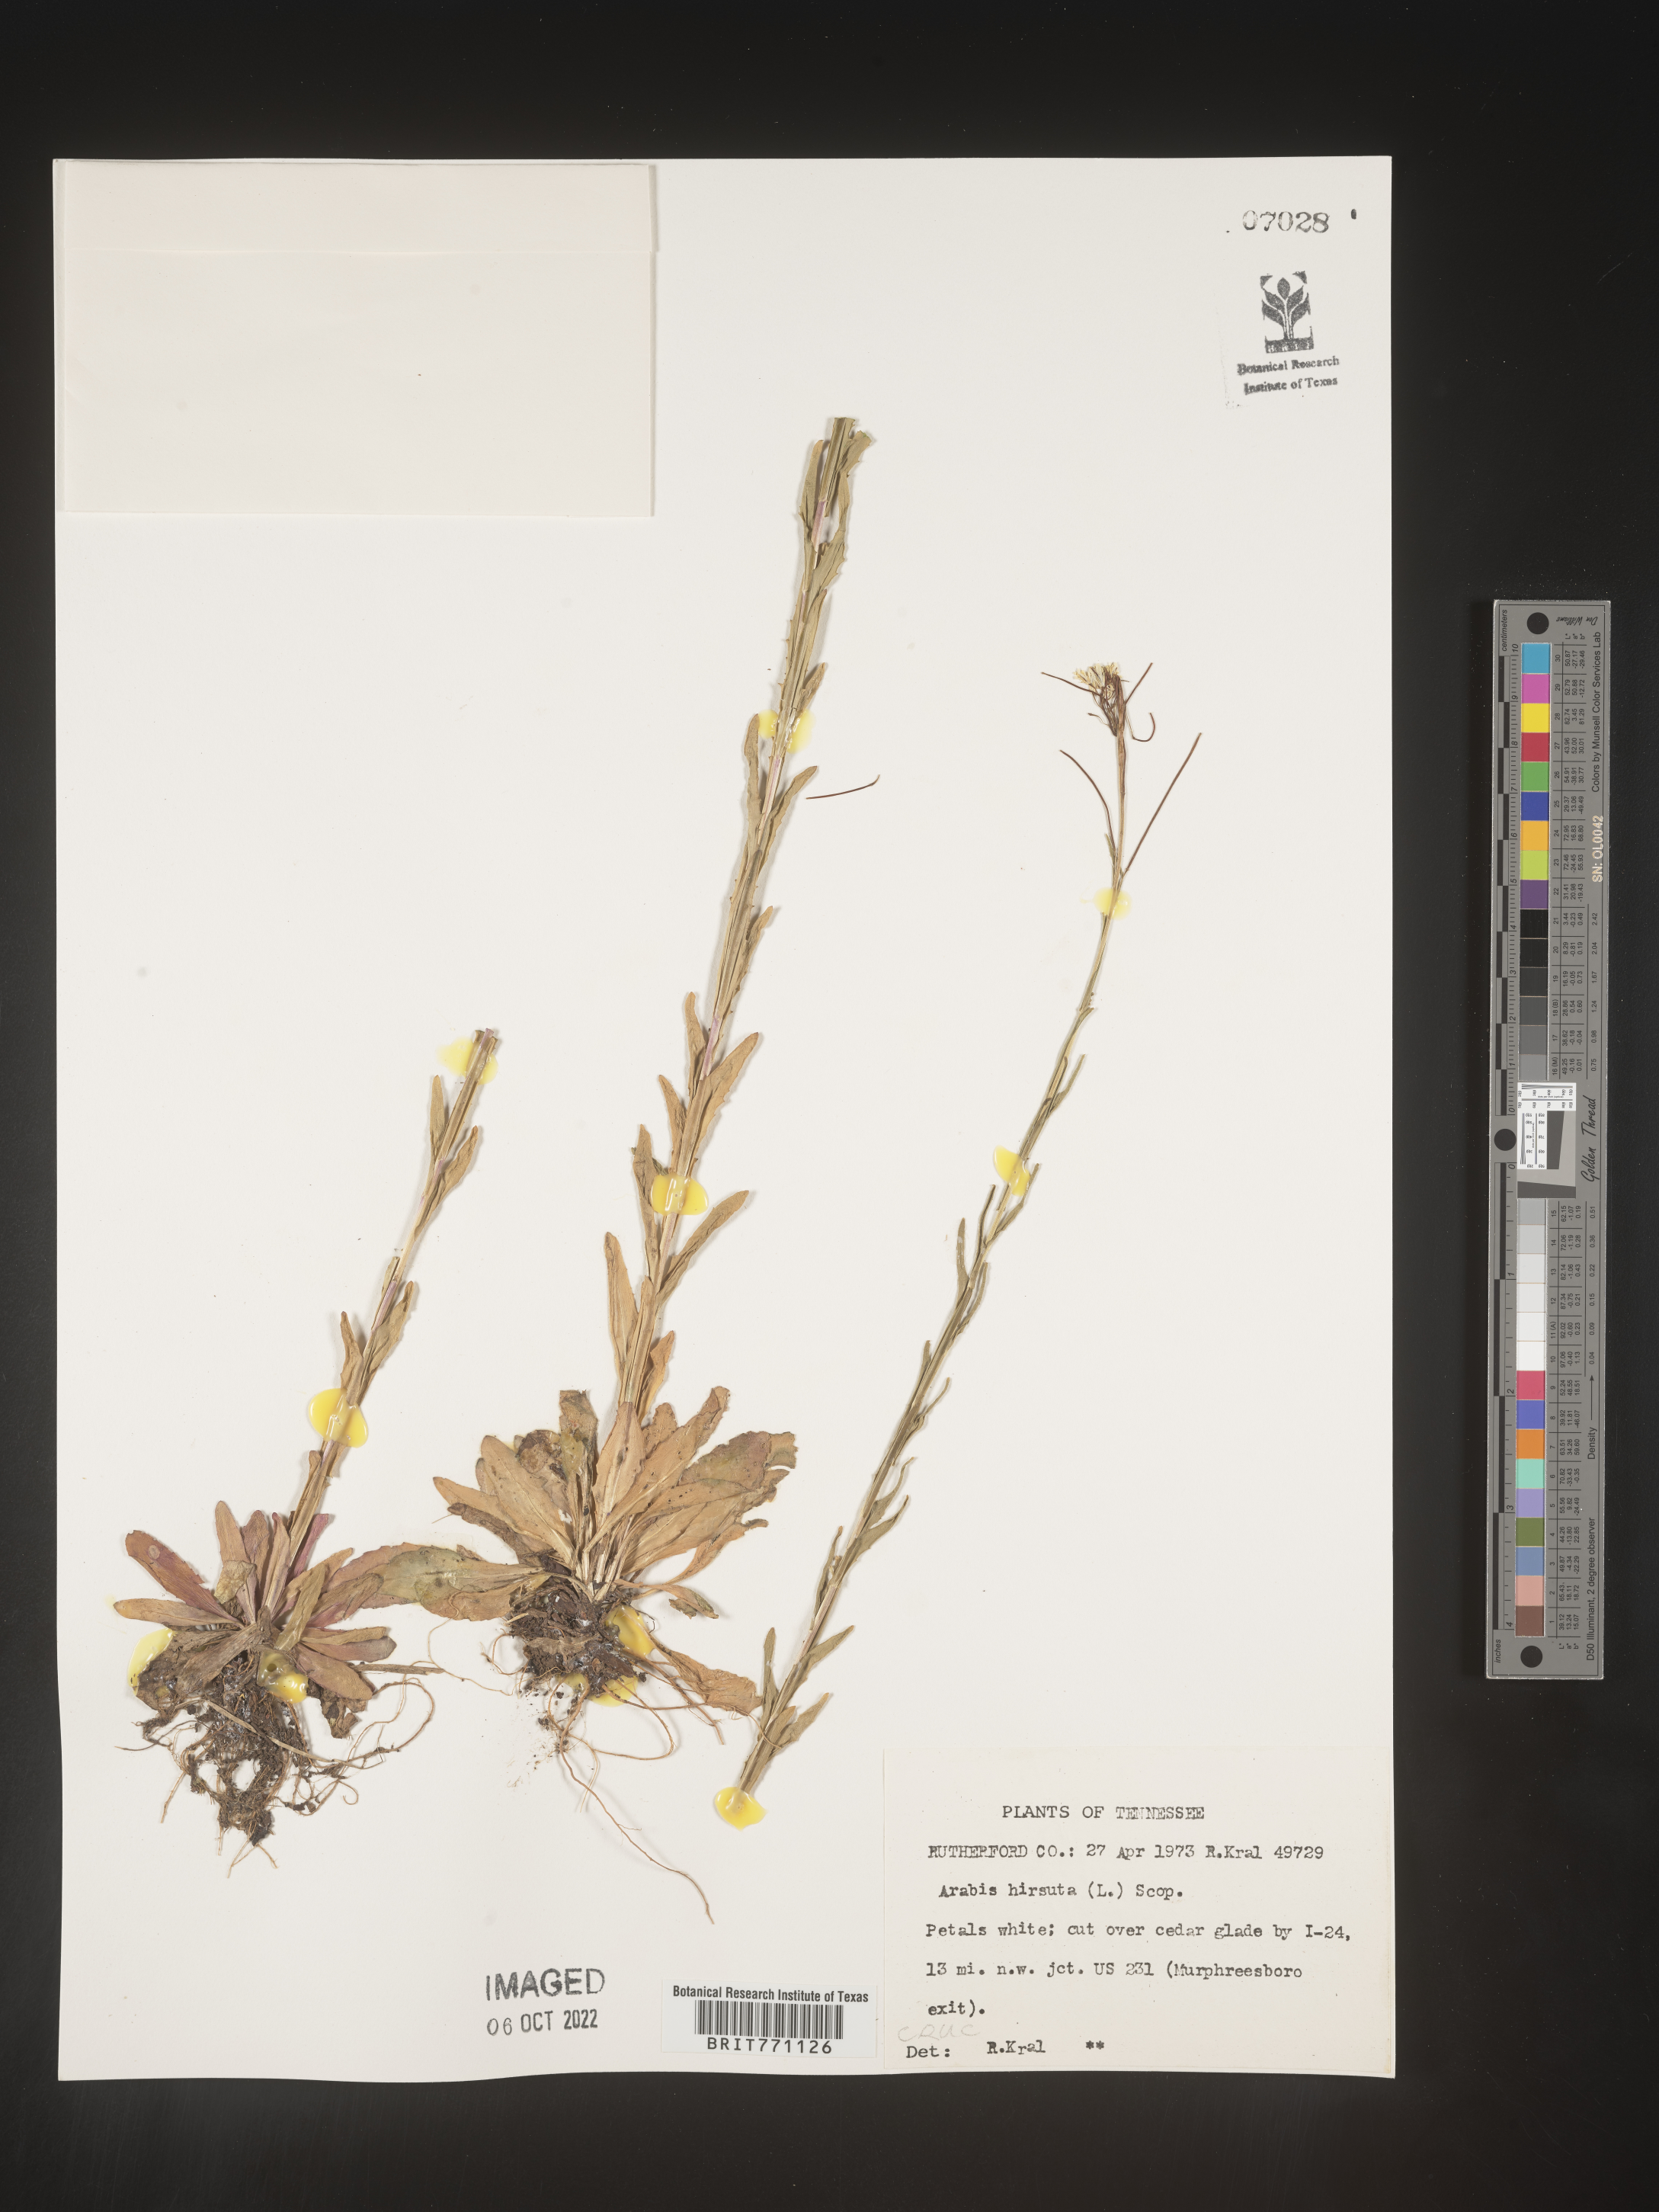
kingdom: Plantae
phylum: Tracheophyta
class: Magnoliopsida
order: Brassicales
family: Brassicaceae
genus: Arabis
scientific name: Arabis hirsuta
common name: Hairy rock-cress
